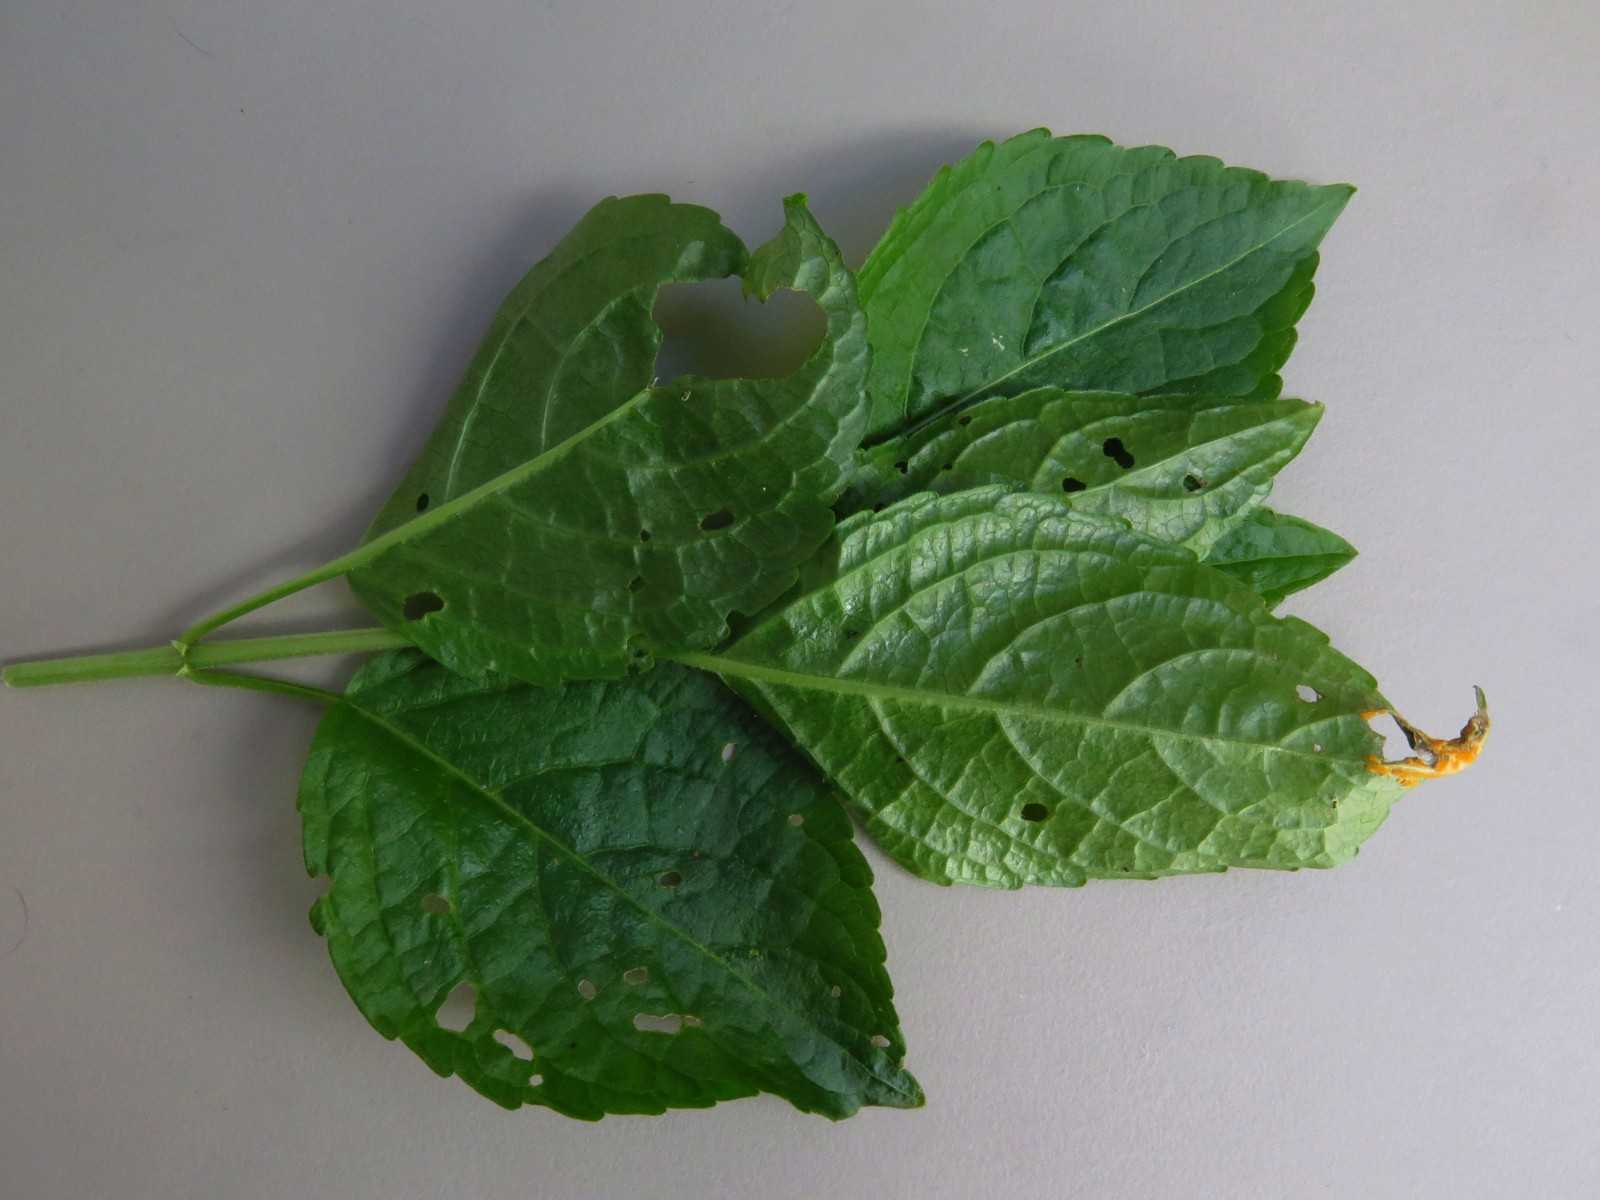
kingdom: Fungi
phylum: Basidiomycota
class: Pucciniomycetes
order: Pucciniales
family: Melampsoraceae
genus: Melampsora
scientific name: Melampsora populnea
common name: poppel-skorperust
